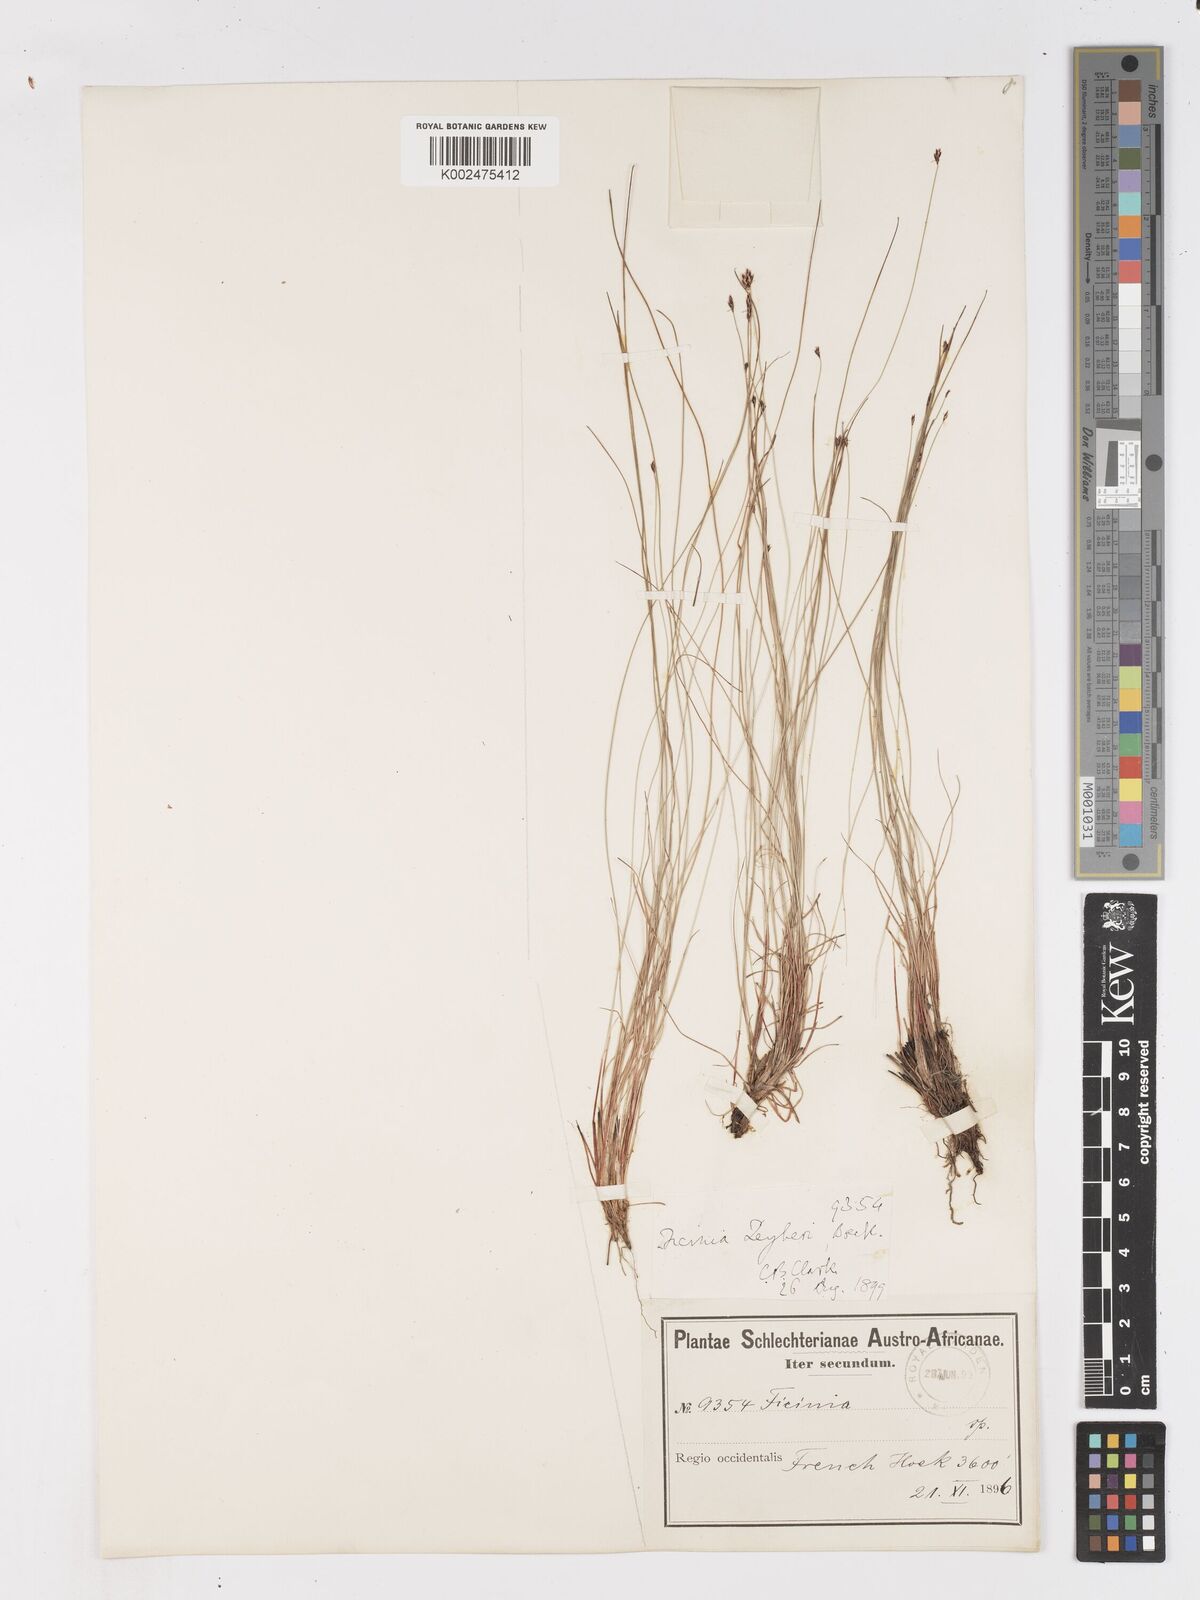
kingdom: Plantae
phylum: Tracheophyta
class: Liliopsida
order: Poales
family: Cyperaceae
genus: Ficinia
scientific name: Ficinia acuminata
